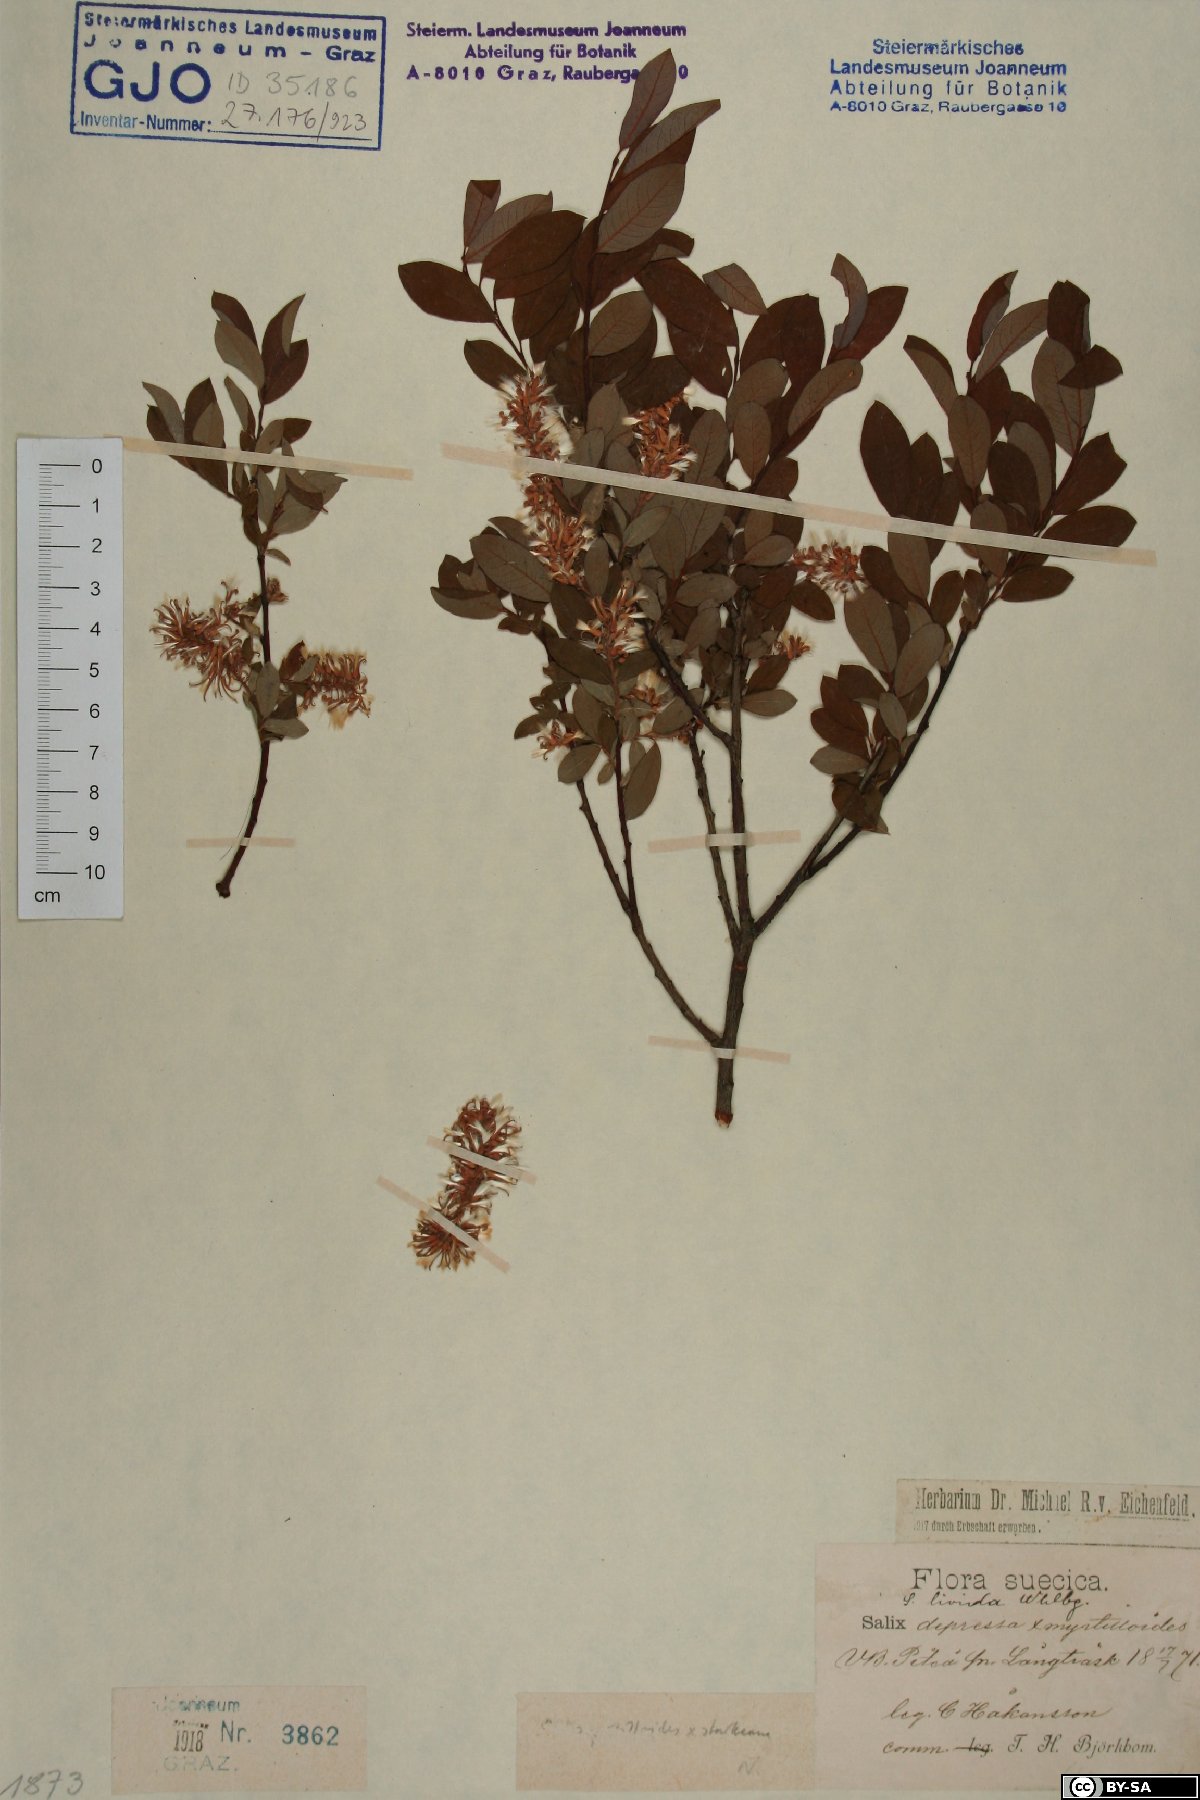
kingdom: Plantae
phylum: Tracheophyta
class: Magnoliopsida
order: Malpighiales
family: Salicaceae
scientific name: Salicaceae
